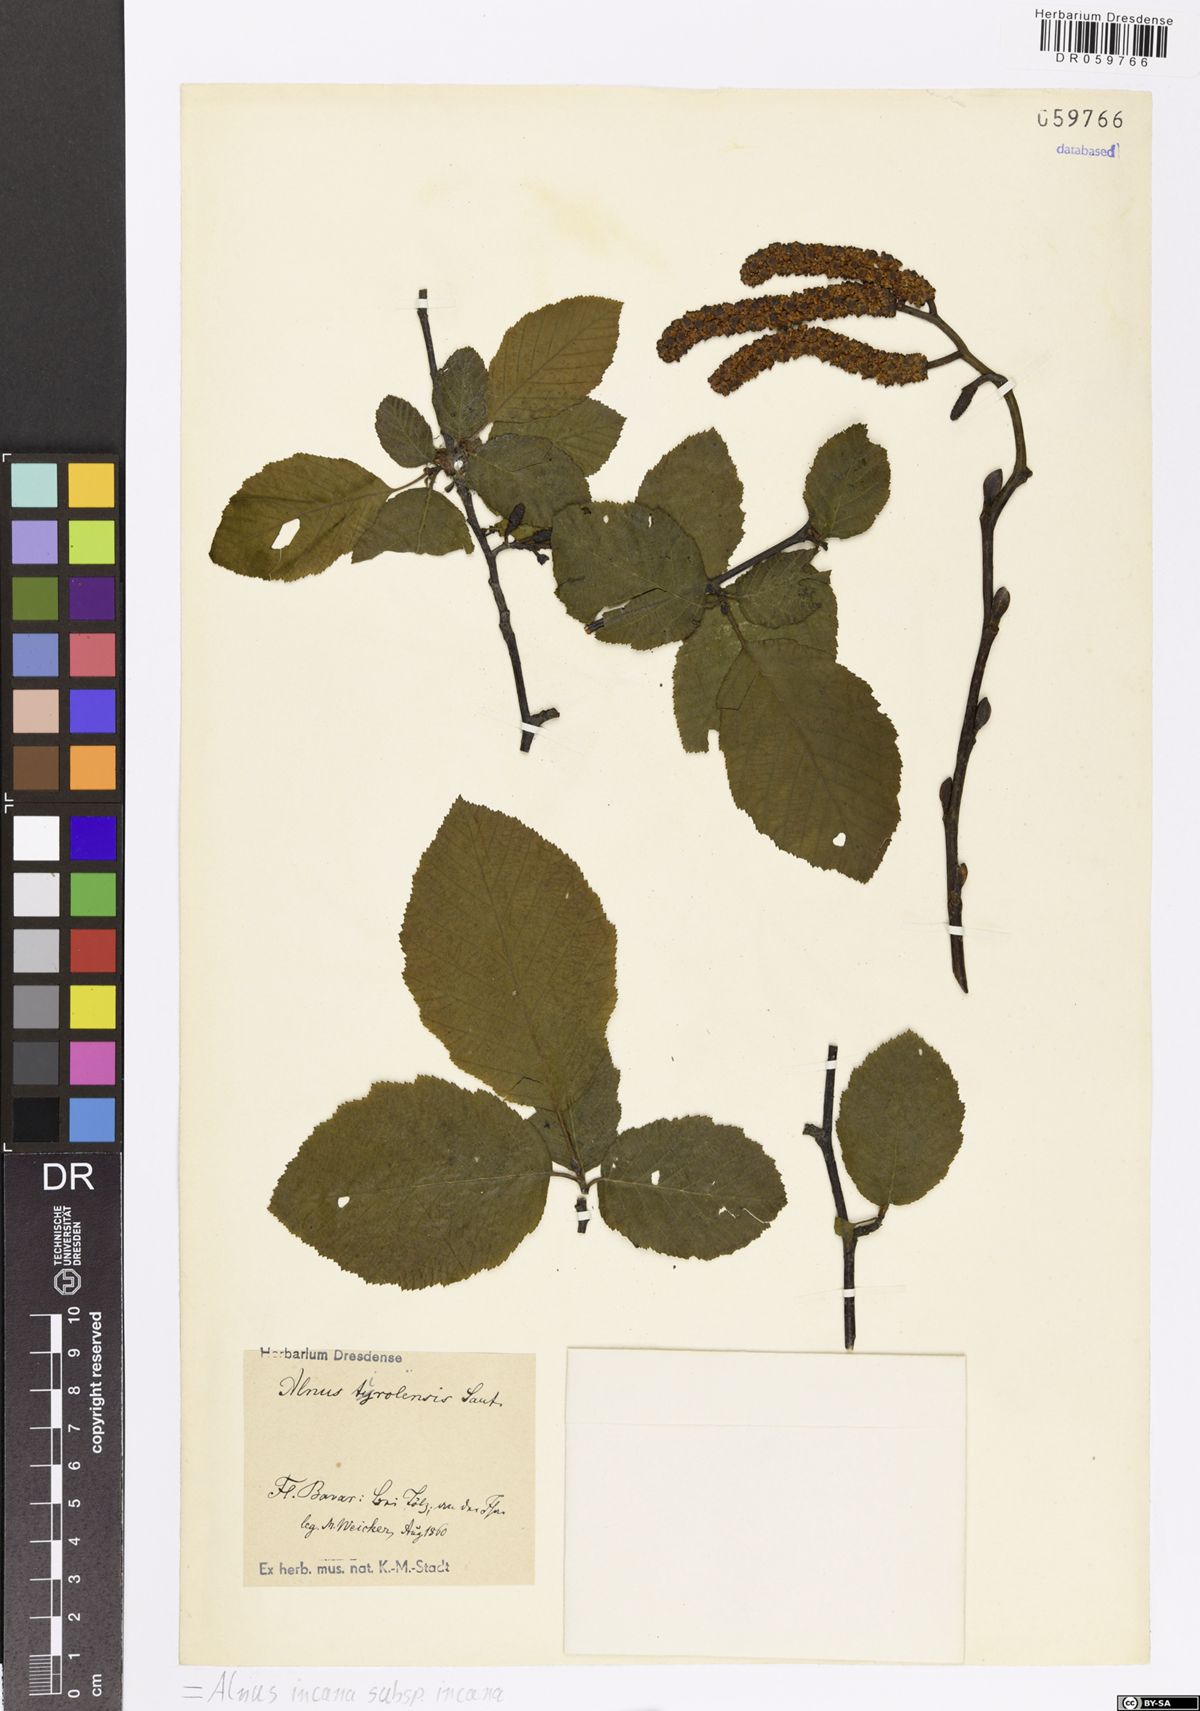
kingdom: Plantae
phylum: Tracheophyta
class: Magnoliopsida
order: Fagales
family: Betulaceae
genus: Alnus
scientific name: Alnus incana
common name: Grey alder
